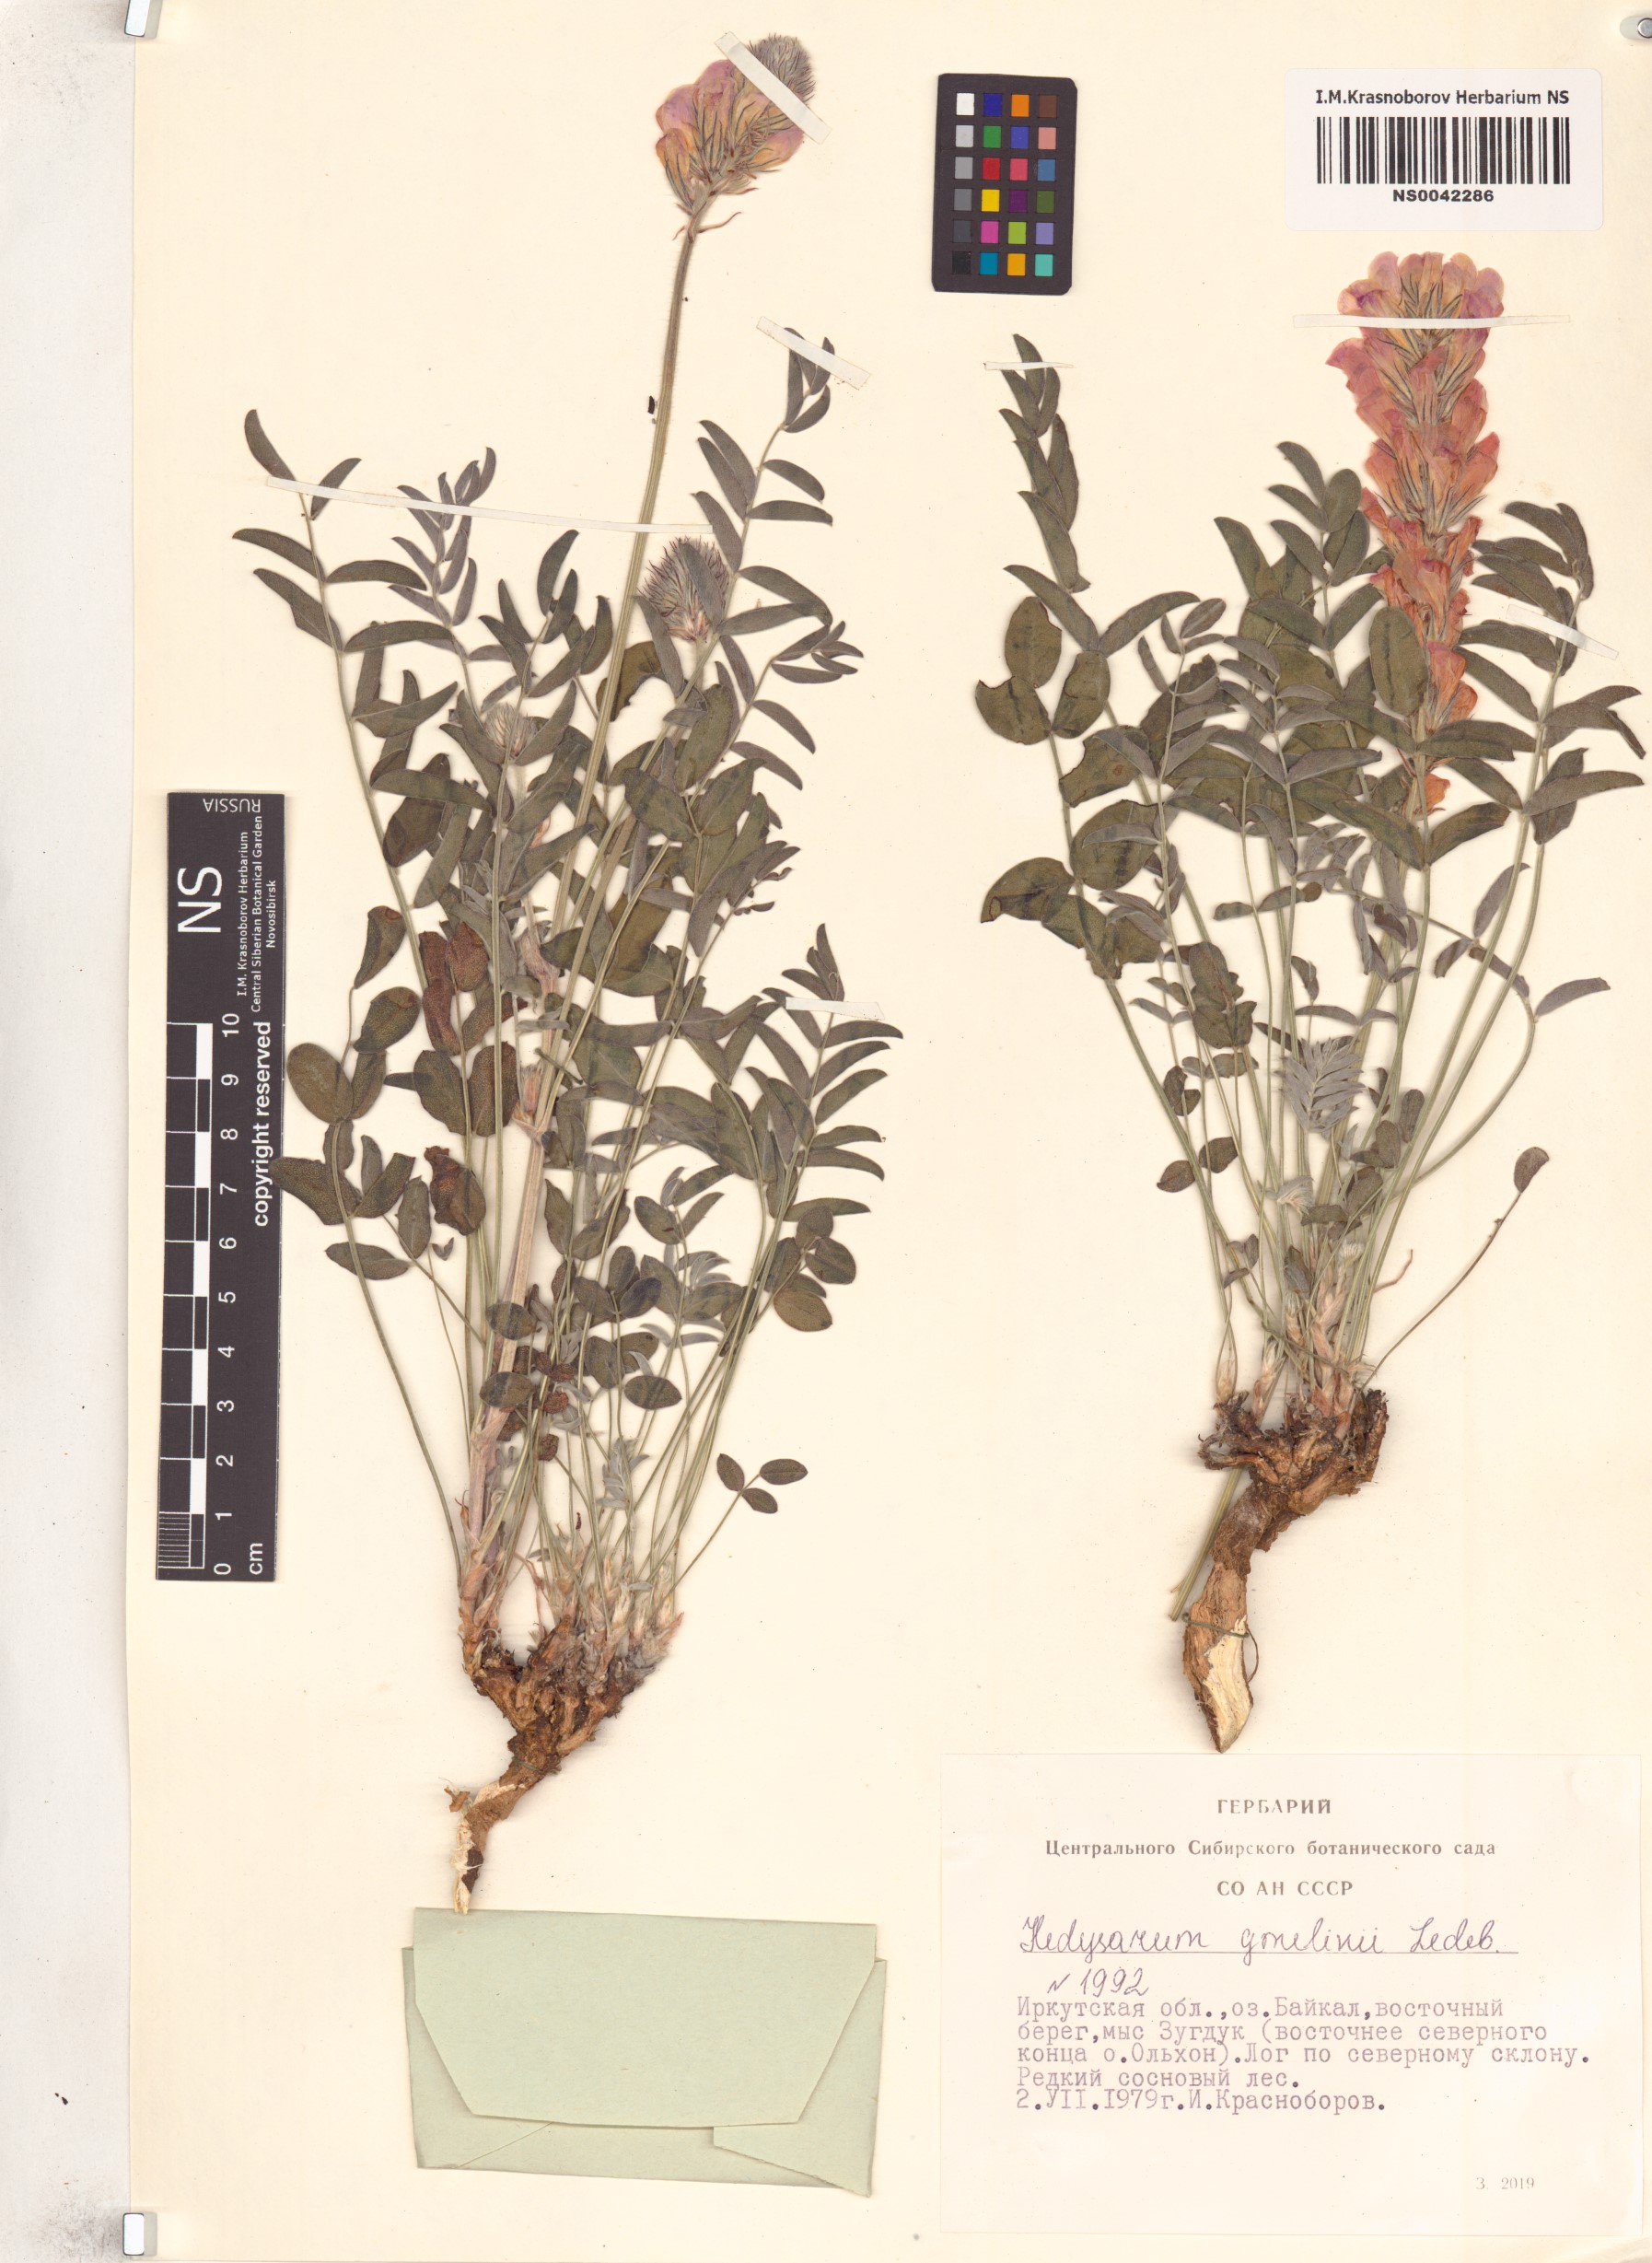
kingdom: Plantae
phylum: Tracheophyta
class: Magnoliopsida
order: Fabales
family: Fabaceae
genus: Hedysarum
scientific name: Hedysarum gmelinii
